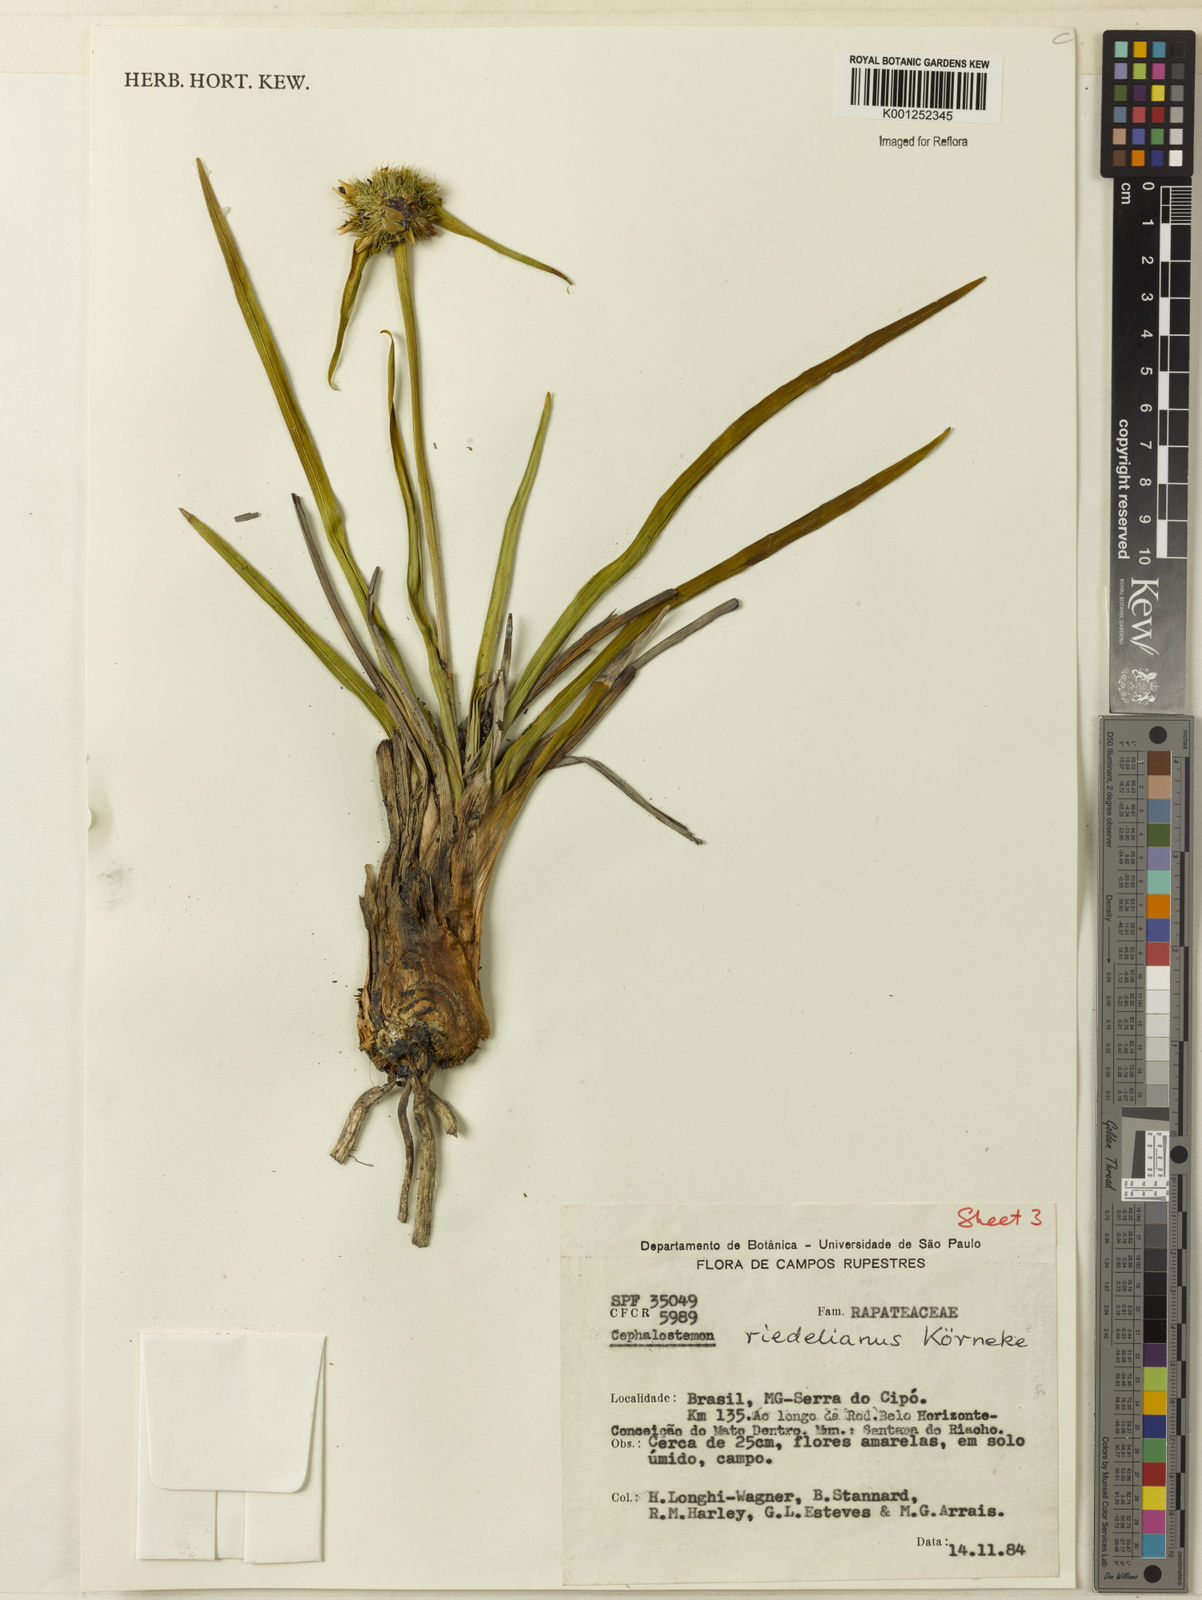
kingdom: Plantae
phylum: Tracheophyta
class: Liliopsida
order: Poales
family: Rapateaceae
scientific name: Rapateaceae
